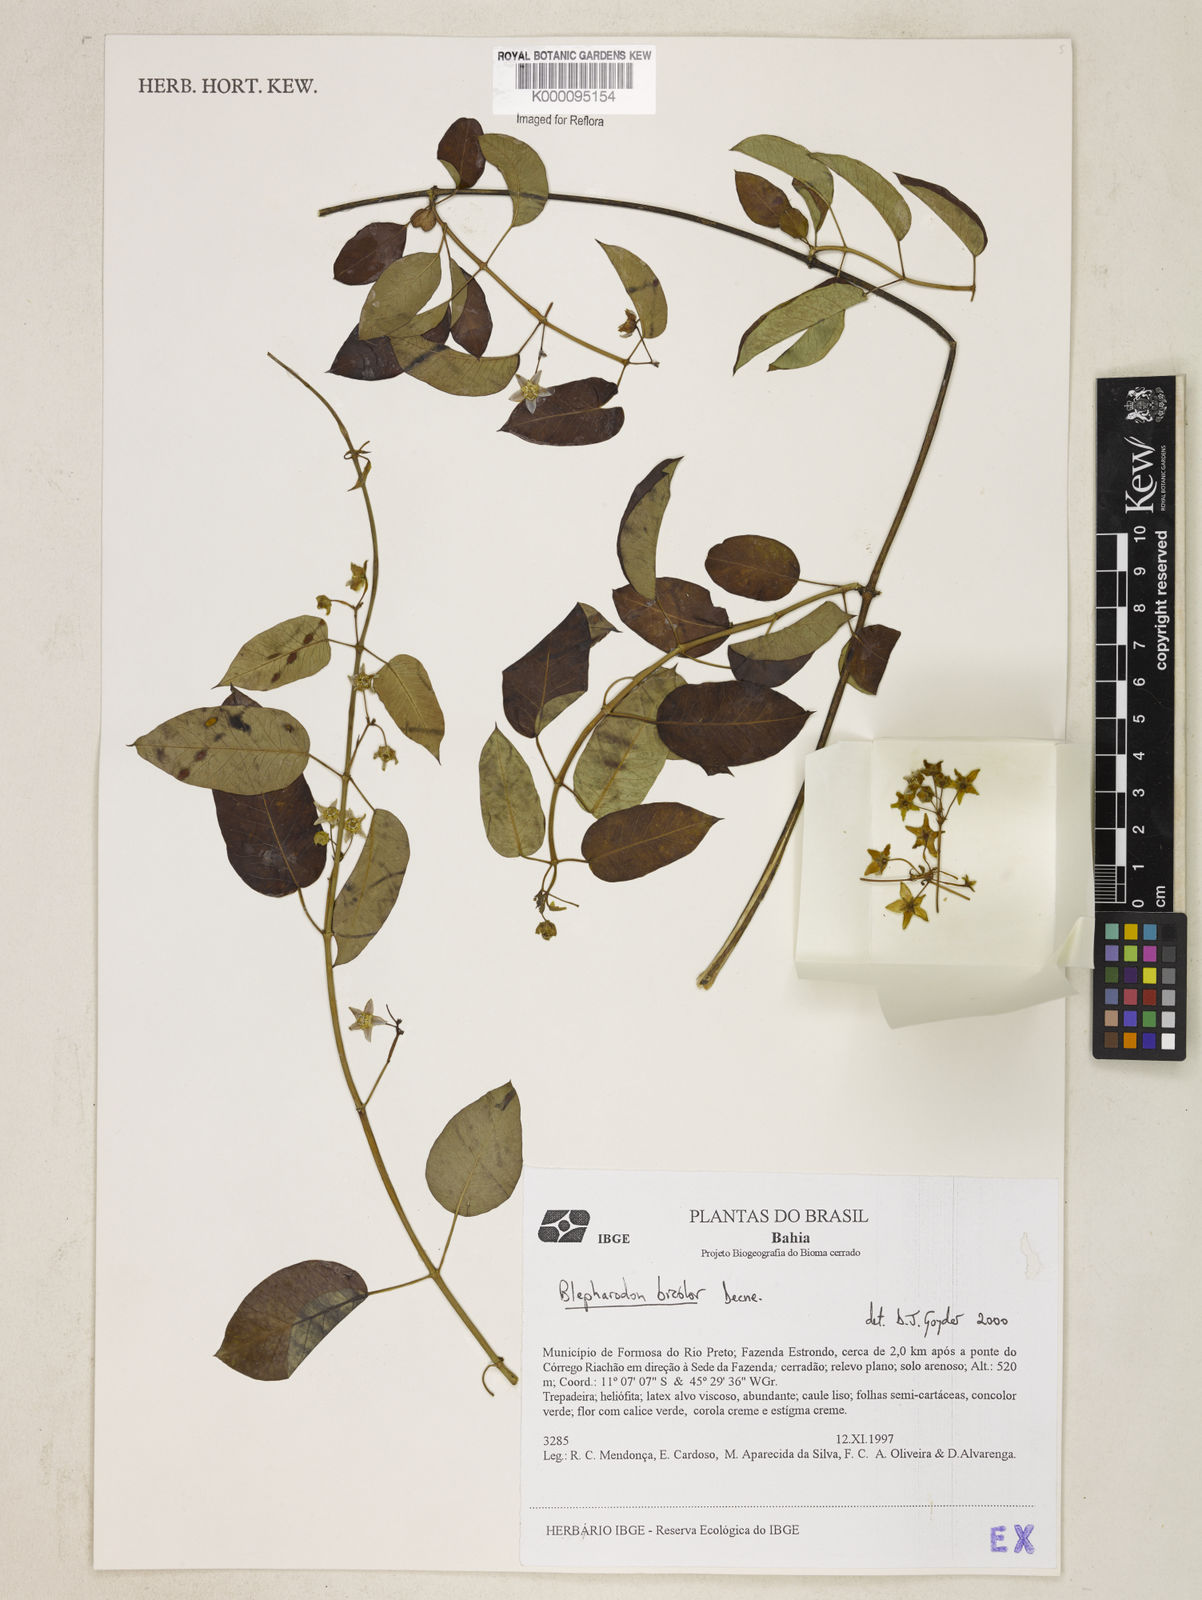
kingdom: Plantae
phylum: Tracheophyta
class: Magnoliopsida
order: Gentianales
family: Apocynaceae
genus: Blepharodon
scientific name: Blepharodon bicolor
